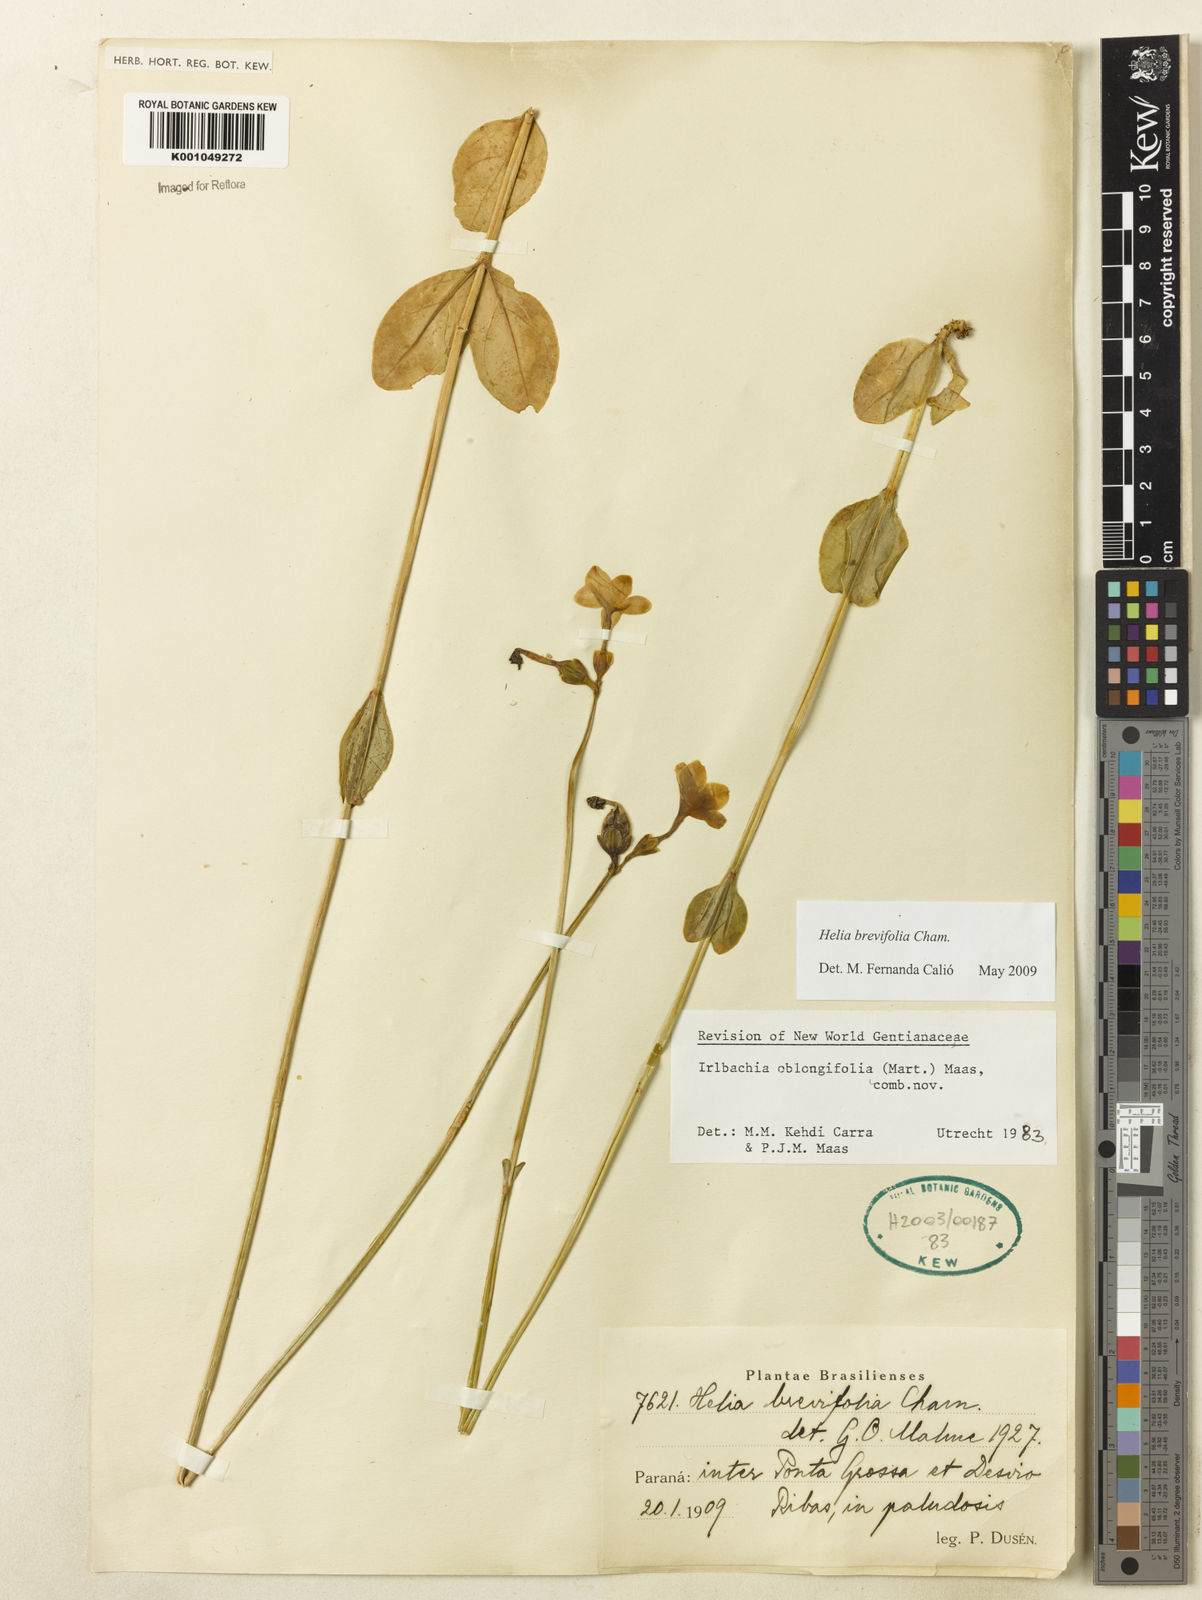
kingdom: Plantae
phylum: Tracheophyta
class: Magnoliopsida
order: Gentianales
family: Gentianaceae
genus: Irlbachia
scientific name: Irlbachia breviflora
